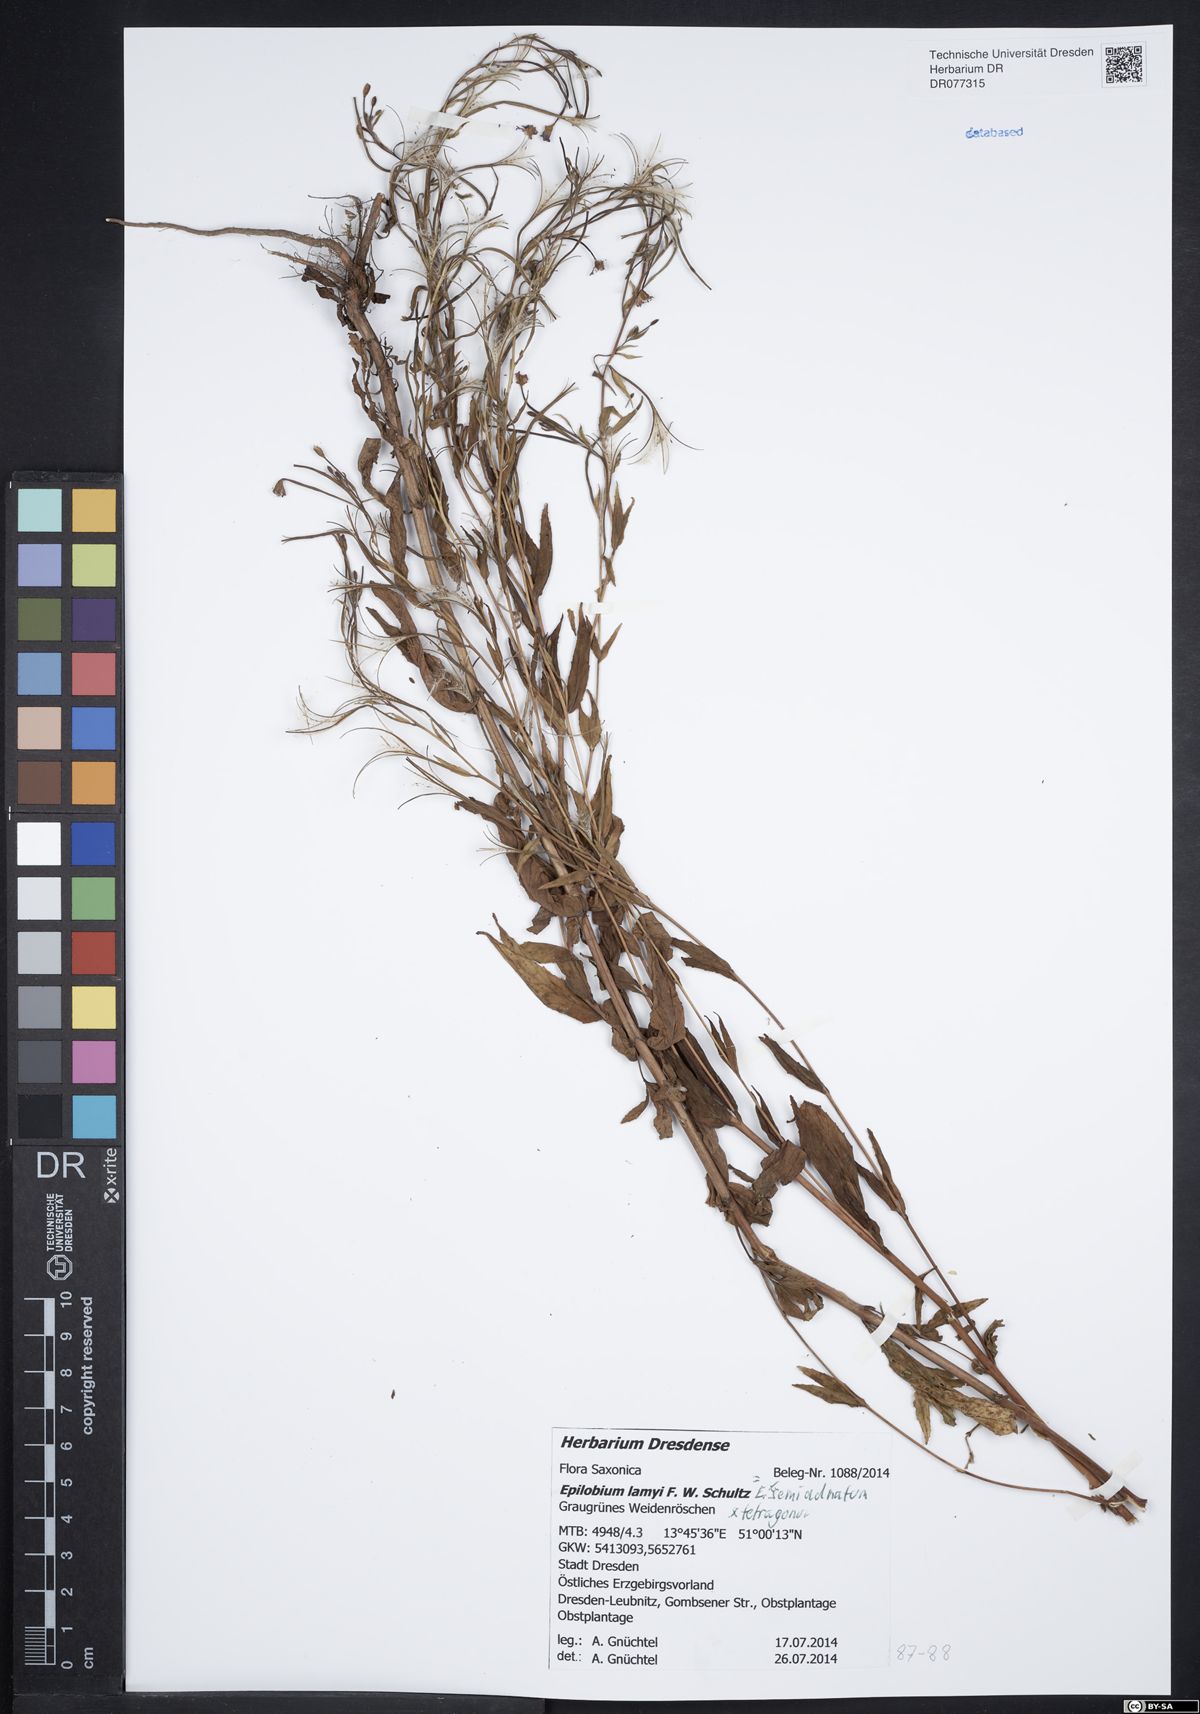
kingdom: Plantae
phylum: Tracheophyta
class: Magnoliopsida
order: Myrtales
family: Onagraceae
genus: Epilobium
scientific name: Epilobium lamyi
